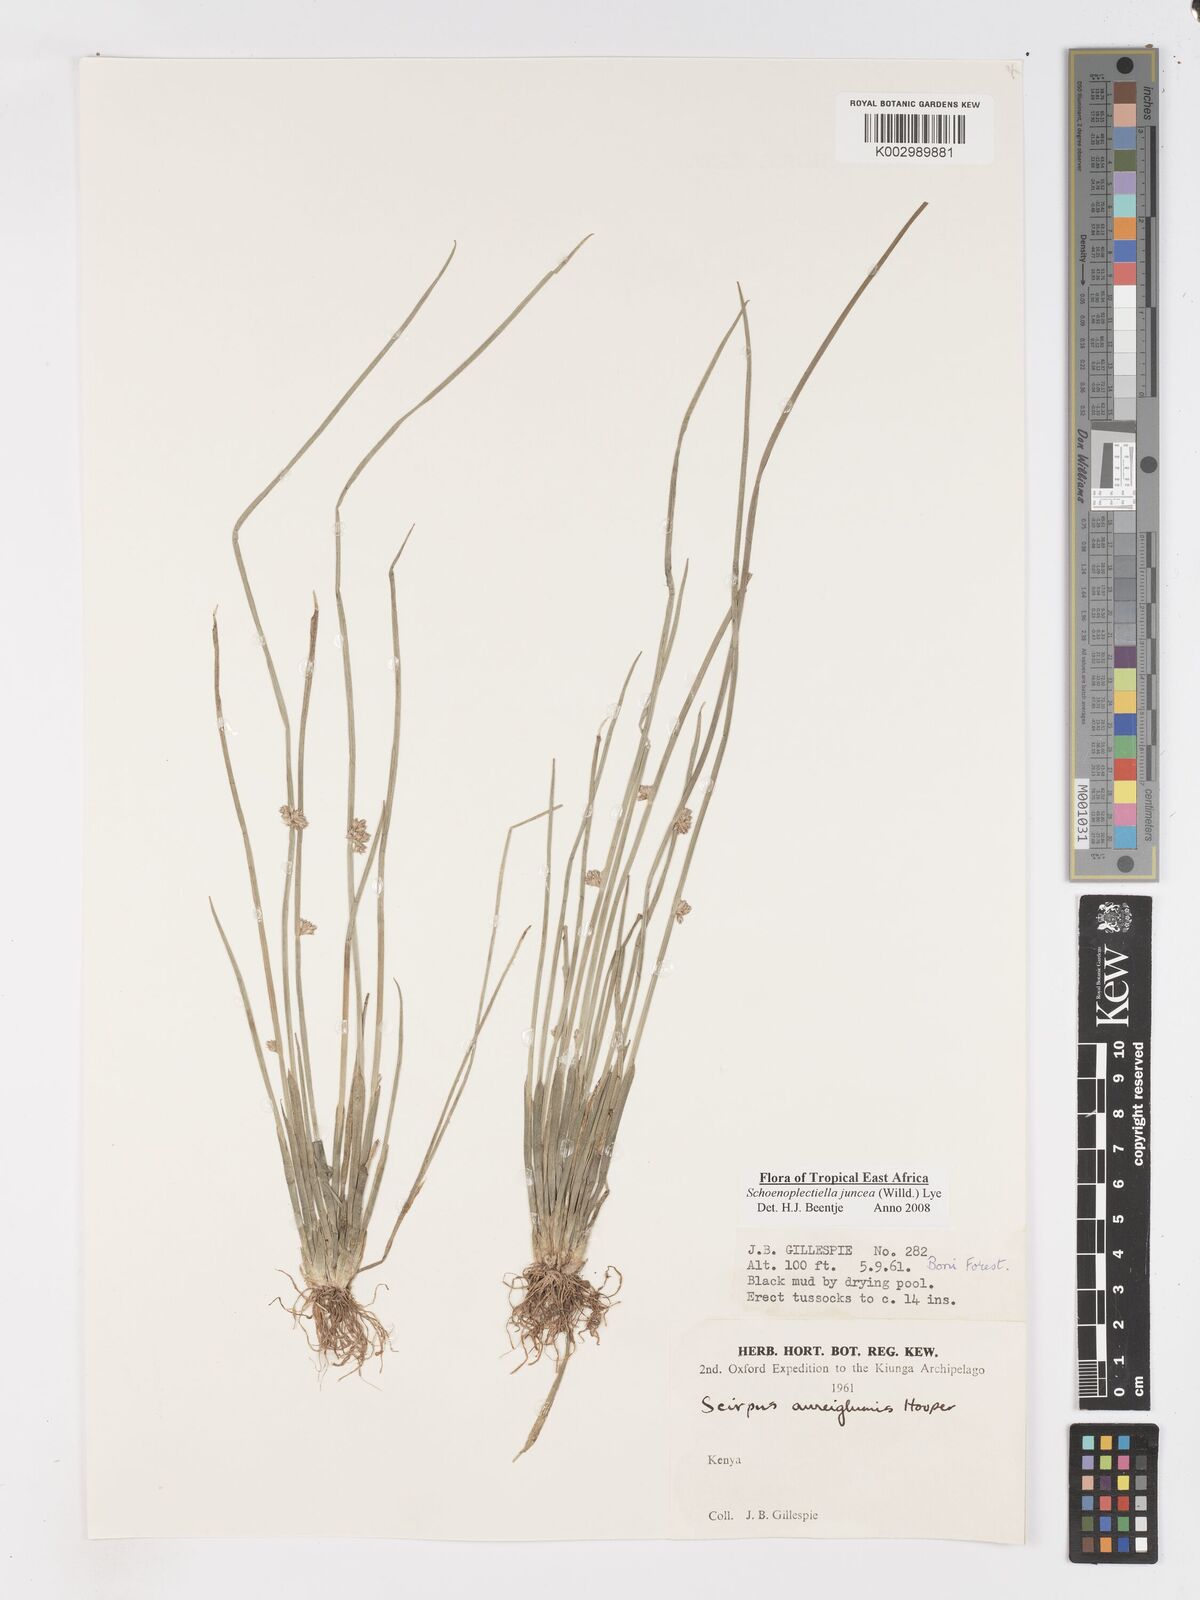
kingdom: Plantae
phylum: Tracheophyta
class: Liliopsida
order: Poales
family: Cyperaceae
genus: Schoenoplectiella
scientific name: Schoenoplectiella juncea
